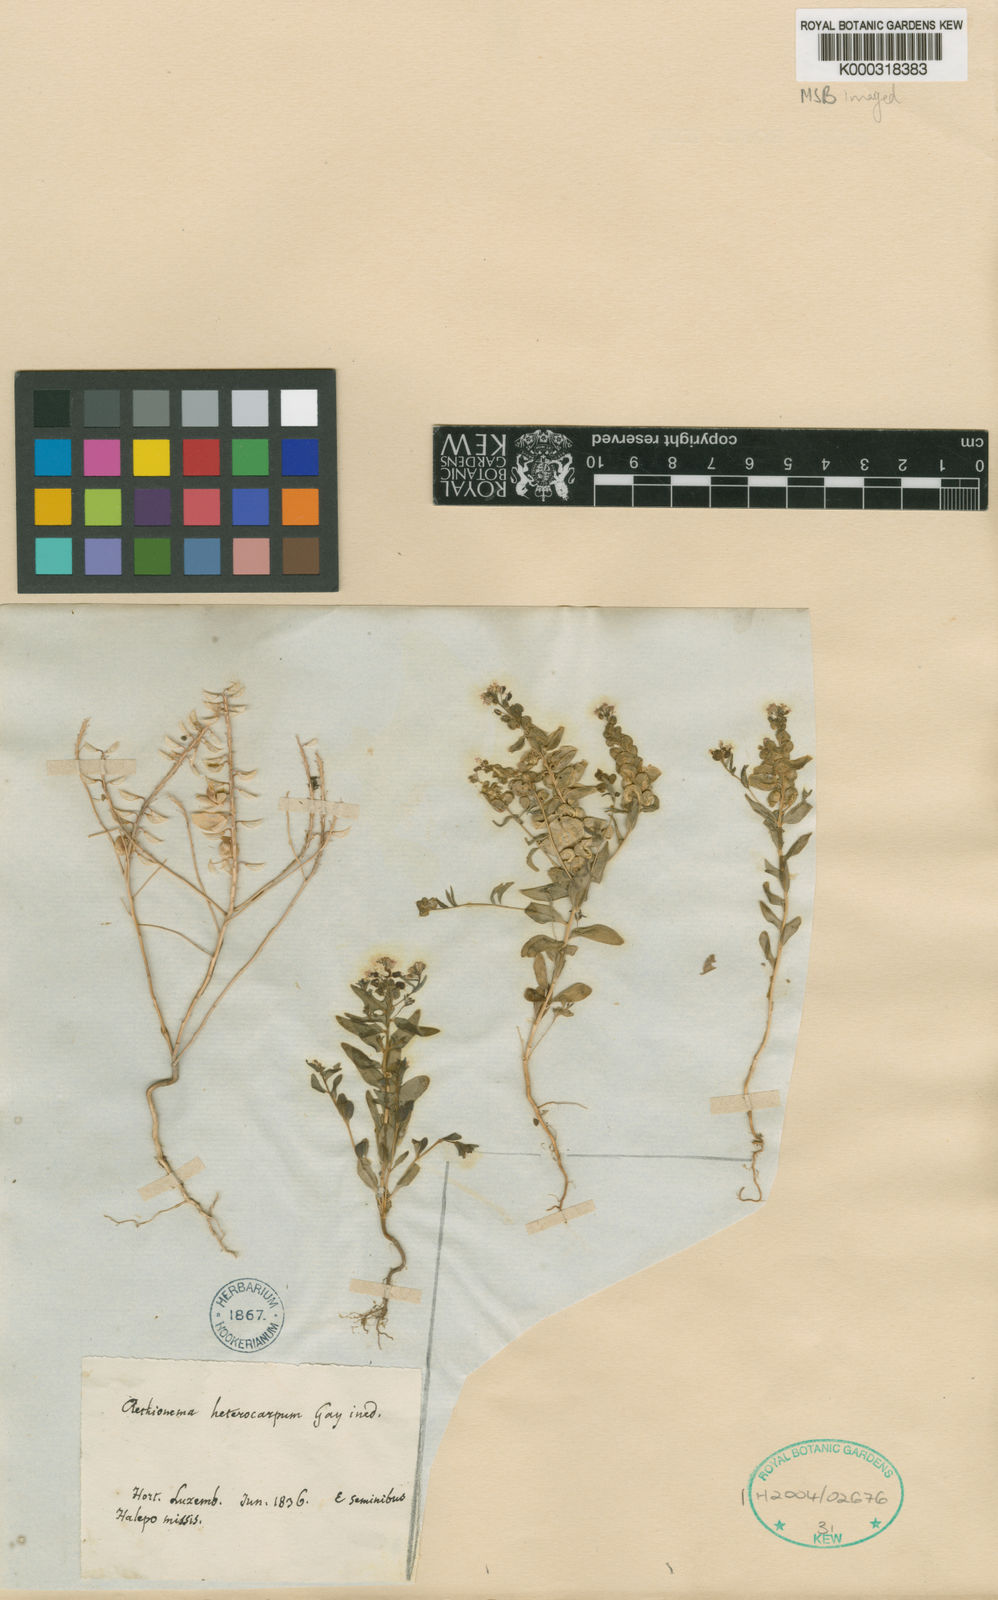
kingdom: Plantae
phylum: Tracheophyta
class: Magnoliopsida
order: Brassicales
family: Brassicaceae
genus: Aethionema
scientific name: Aethionema heterocarpum
